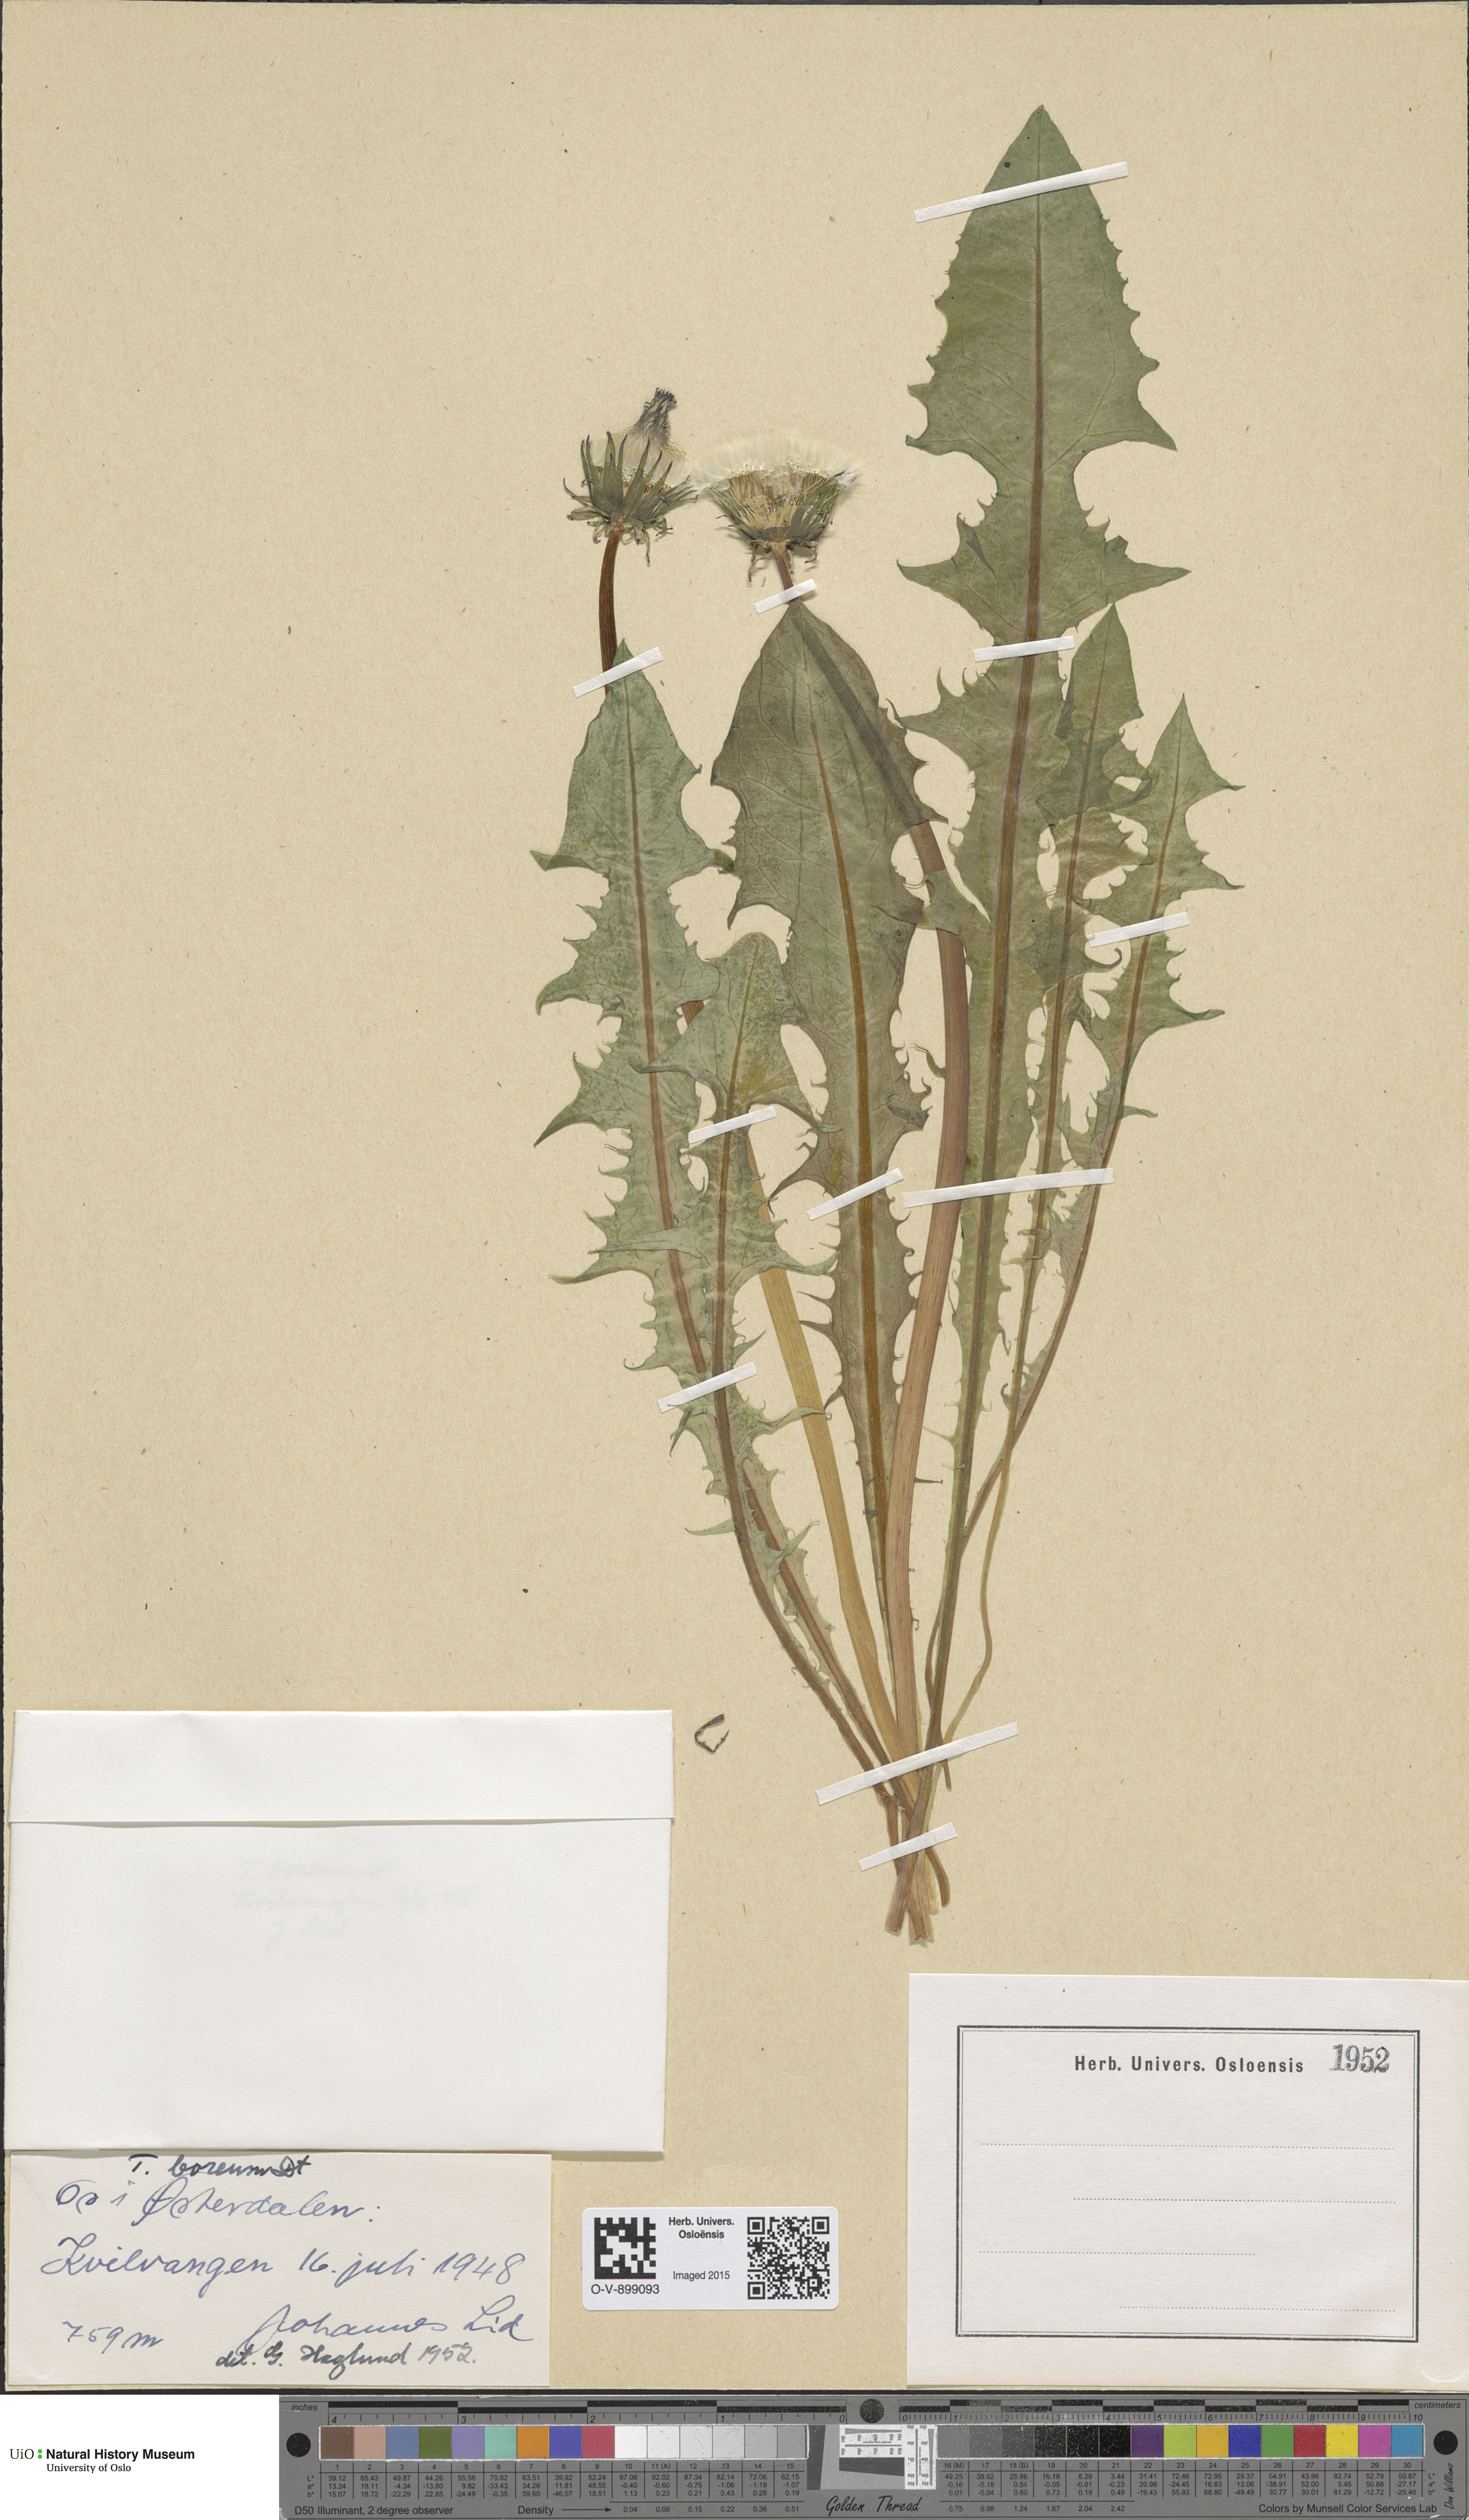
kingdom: Plantae
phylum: Tracheophyta
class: Magnoliopsida
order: Asterales
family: Asteraceae
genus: Taraxacum
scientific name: Taraxacum septentrionale
